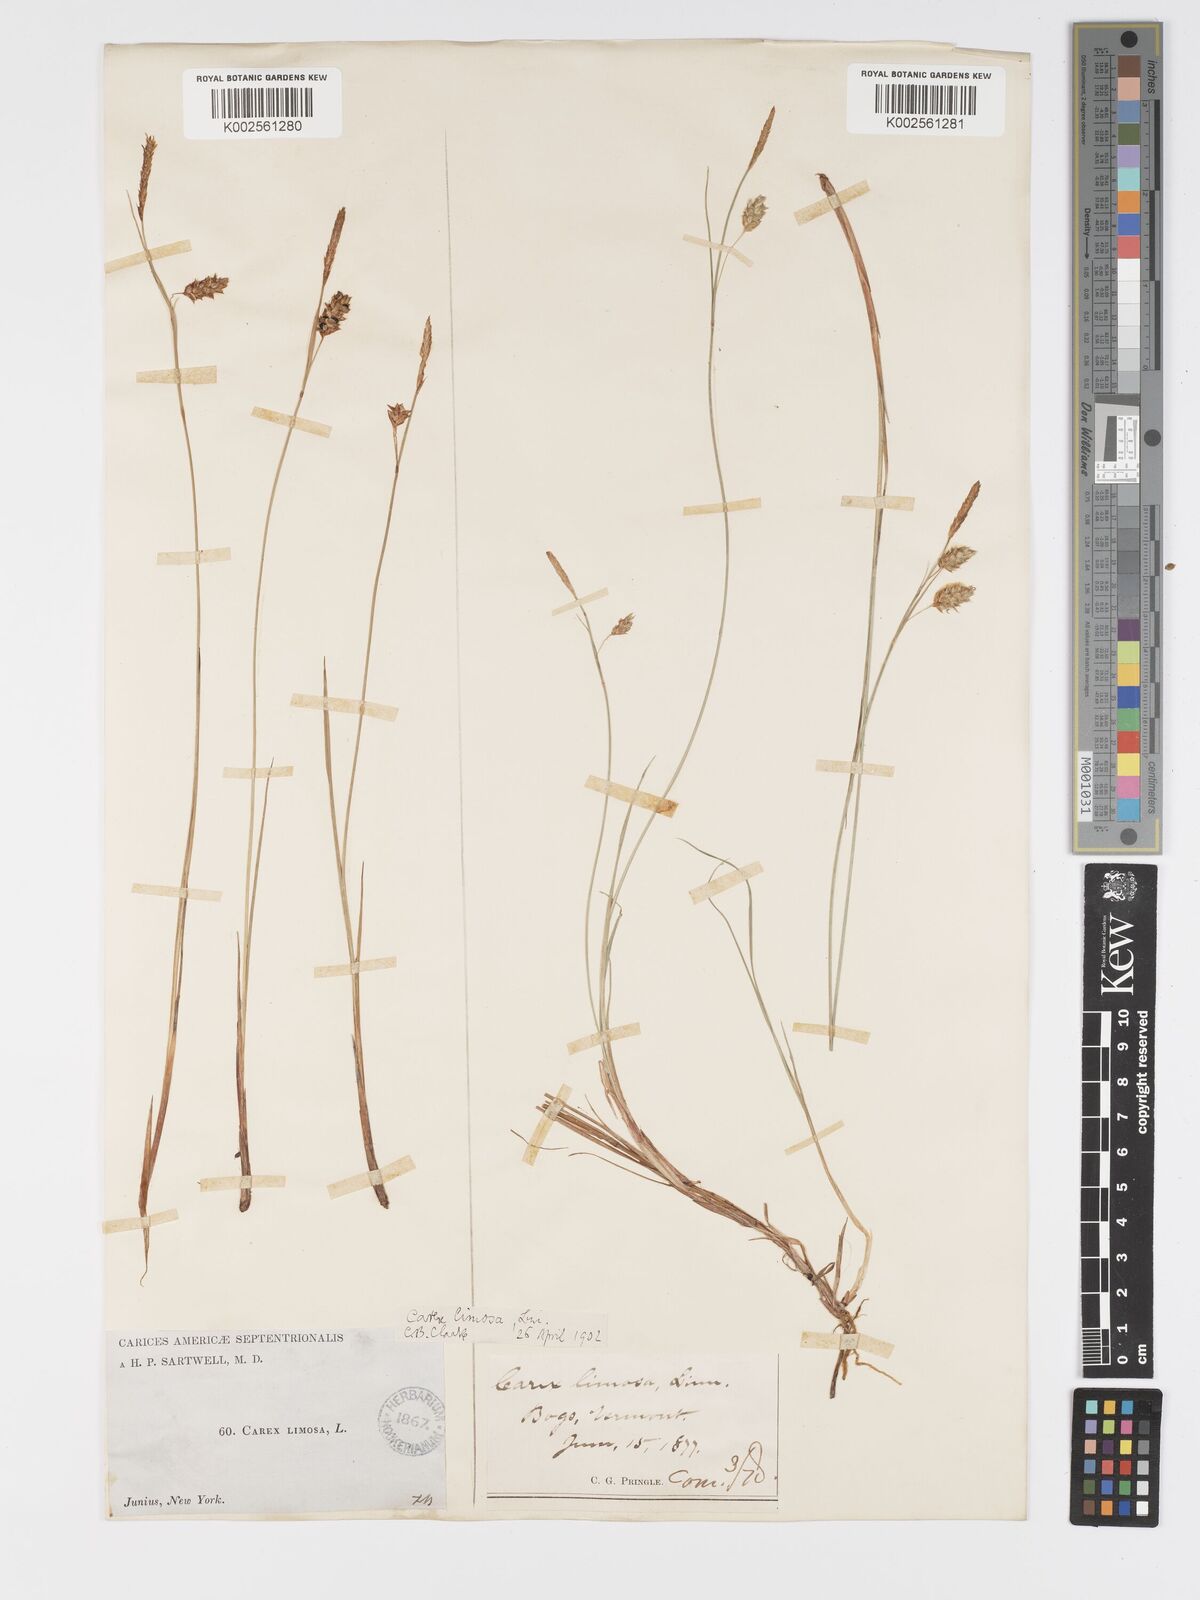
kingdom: Plantae
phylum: Tracheophyta
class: Liliopsida
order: Poales
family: Cyperaceae
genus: Carex
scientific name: Carex limosa
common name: Bog sedge
